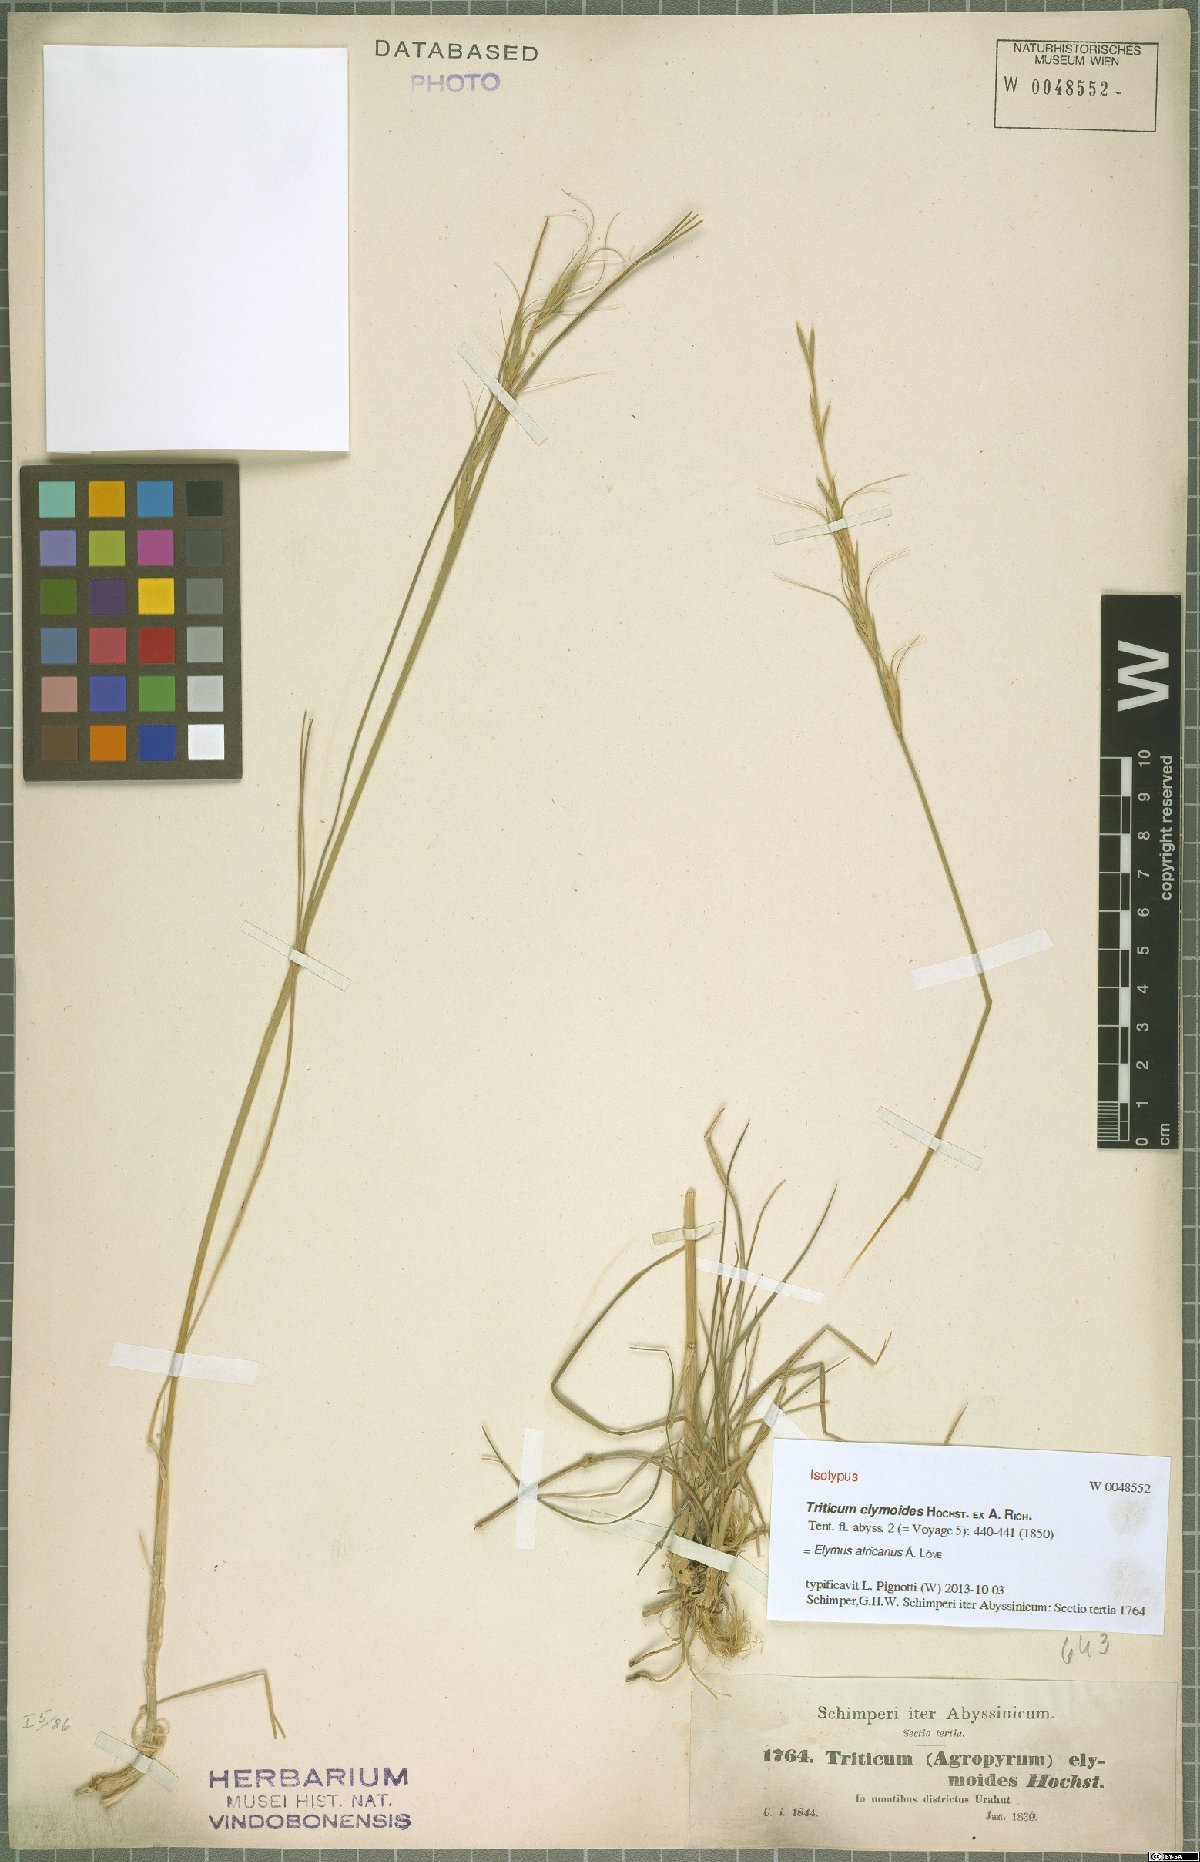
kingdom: Plantae
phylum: Tracheophyta
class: Liliopsida
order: Poales
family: Poaceae
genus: Elymus
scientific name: Elymus africanus
